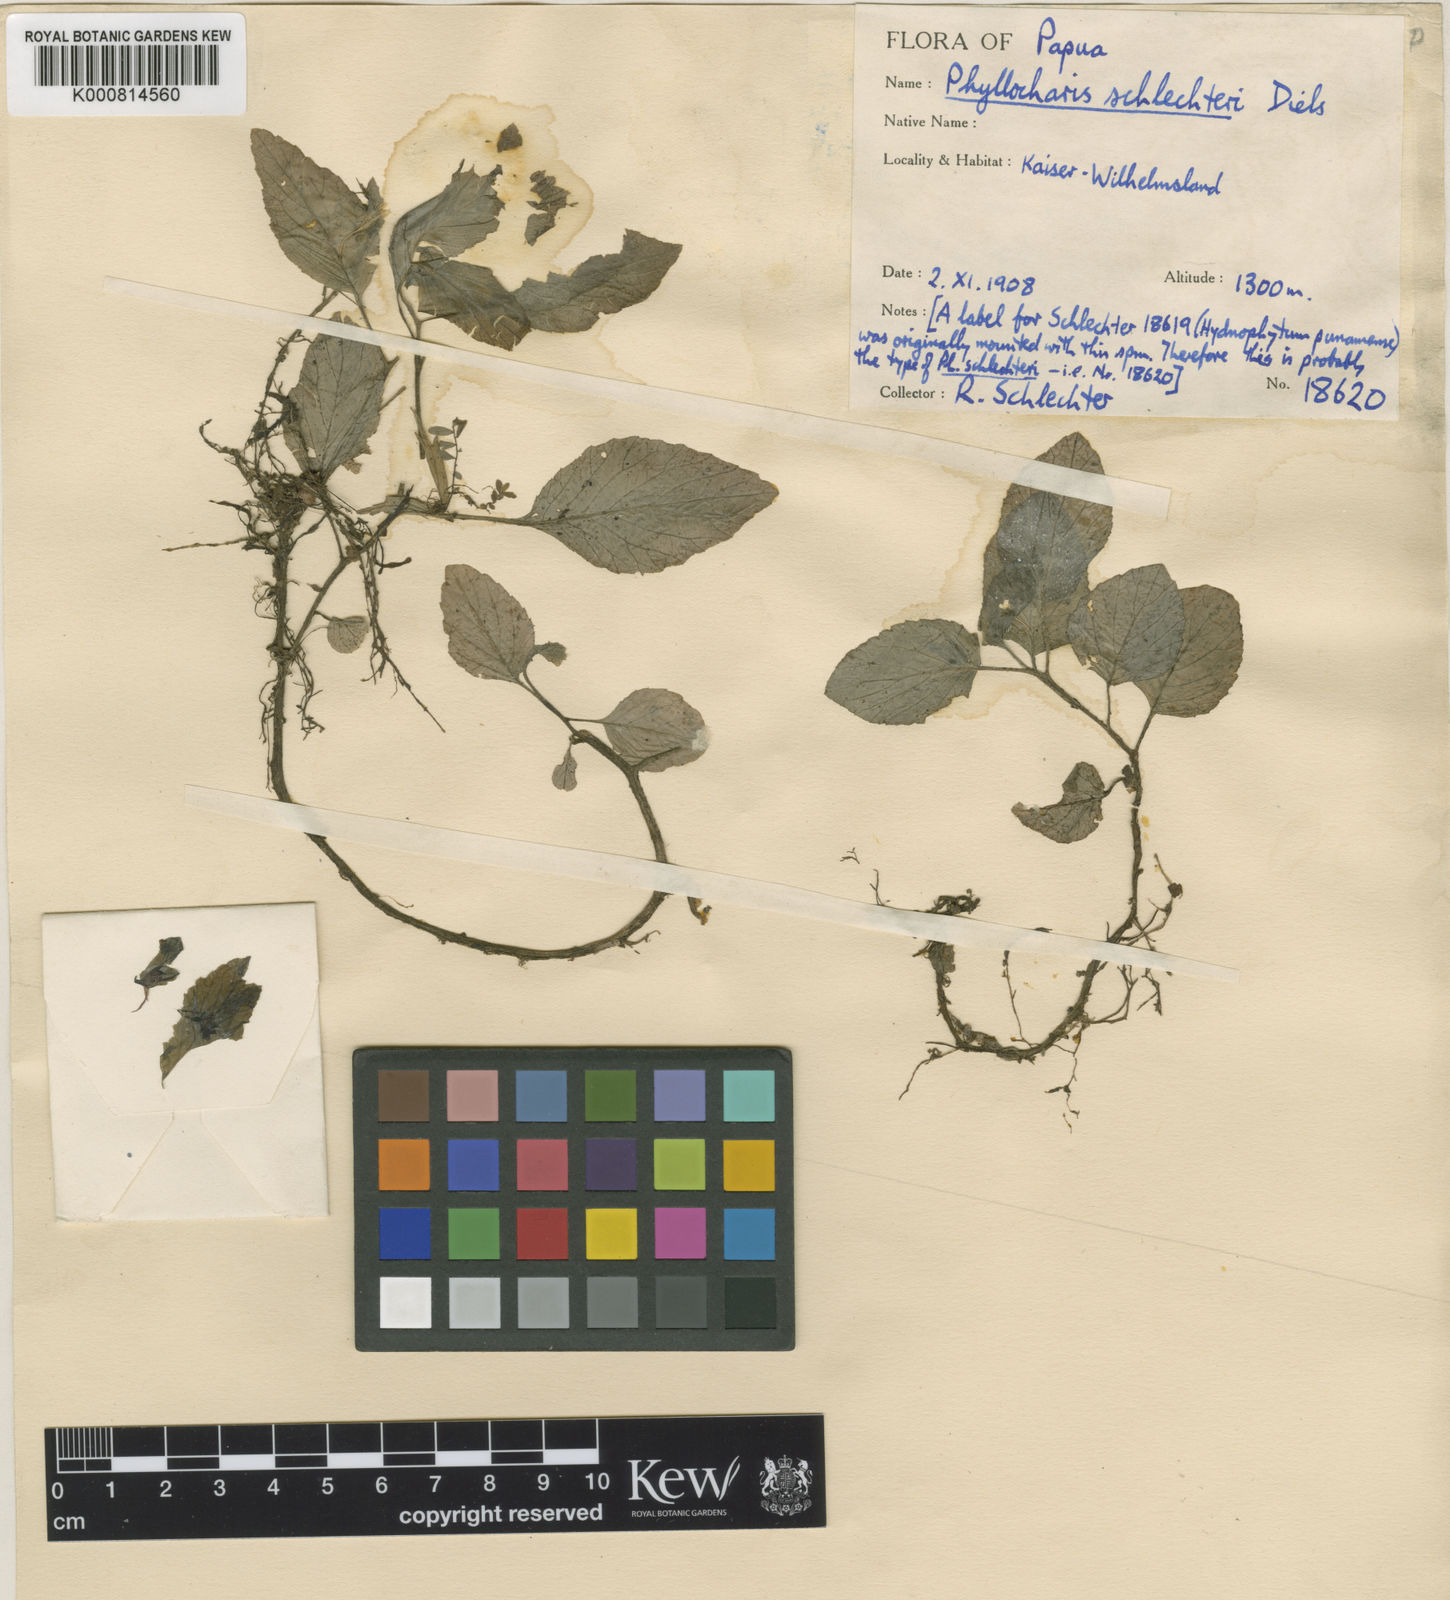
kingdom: Plantae
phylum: Tracheophyta
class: Magnoliopsida
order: Asterales
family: Campanulaceae
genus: Ruthiella
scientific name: Ruthiella schlechteri
